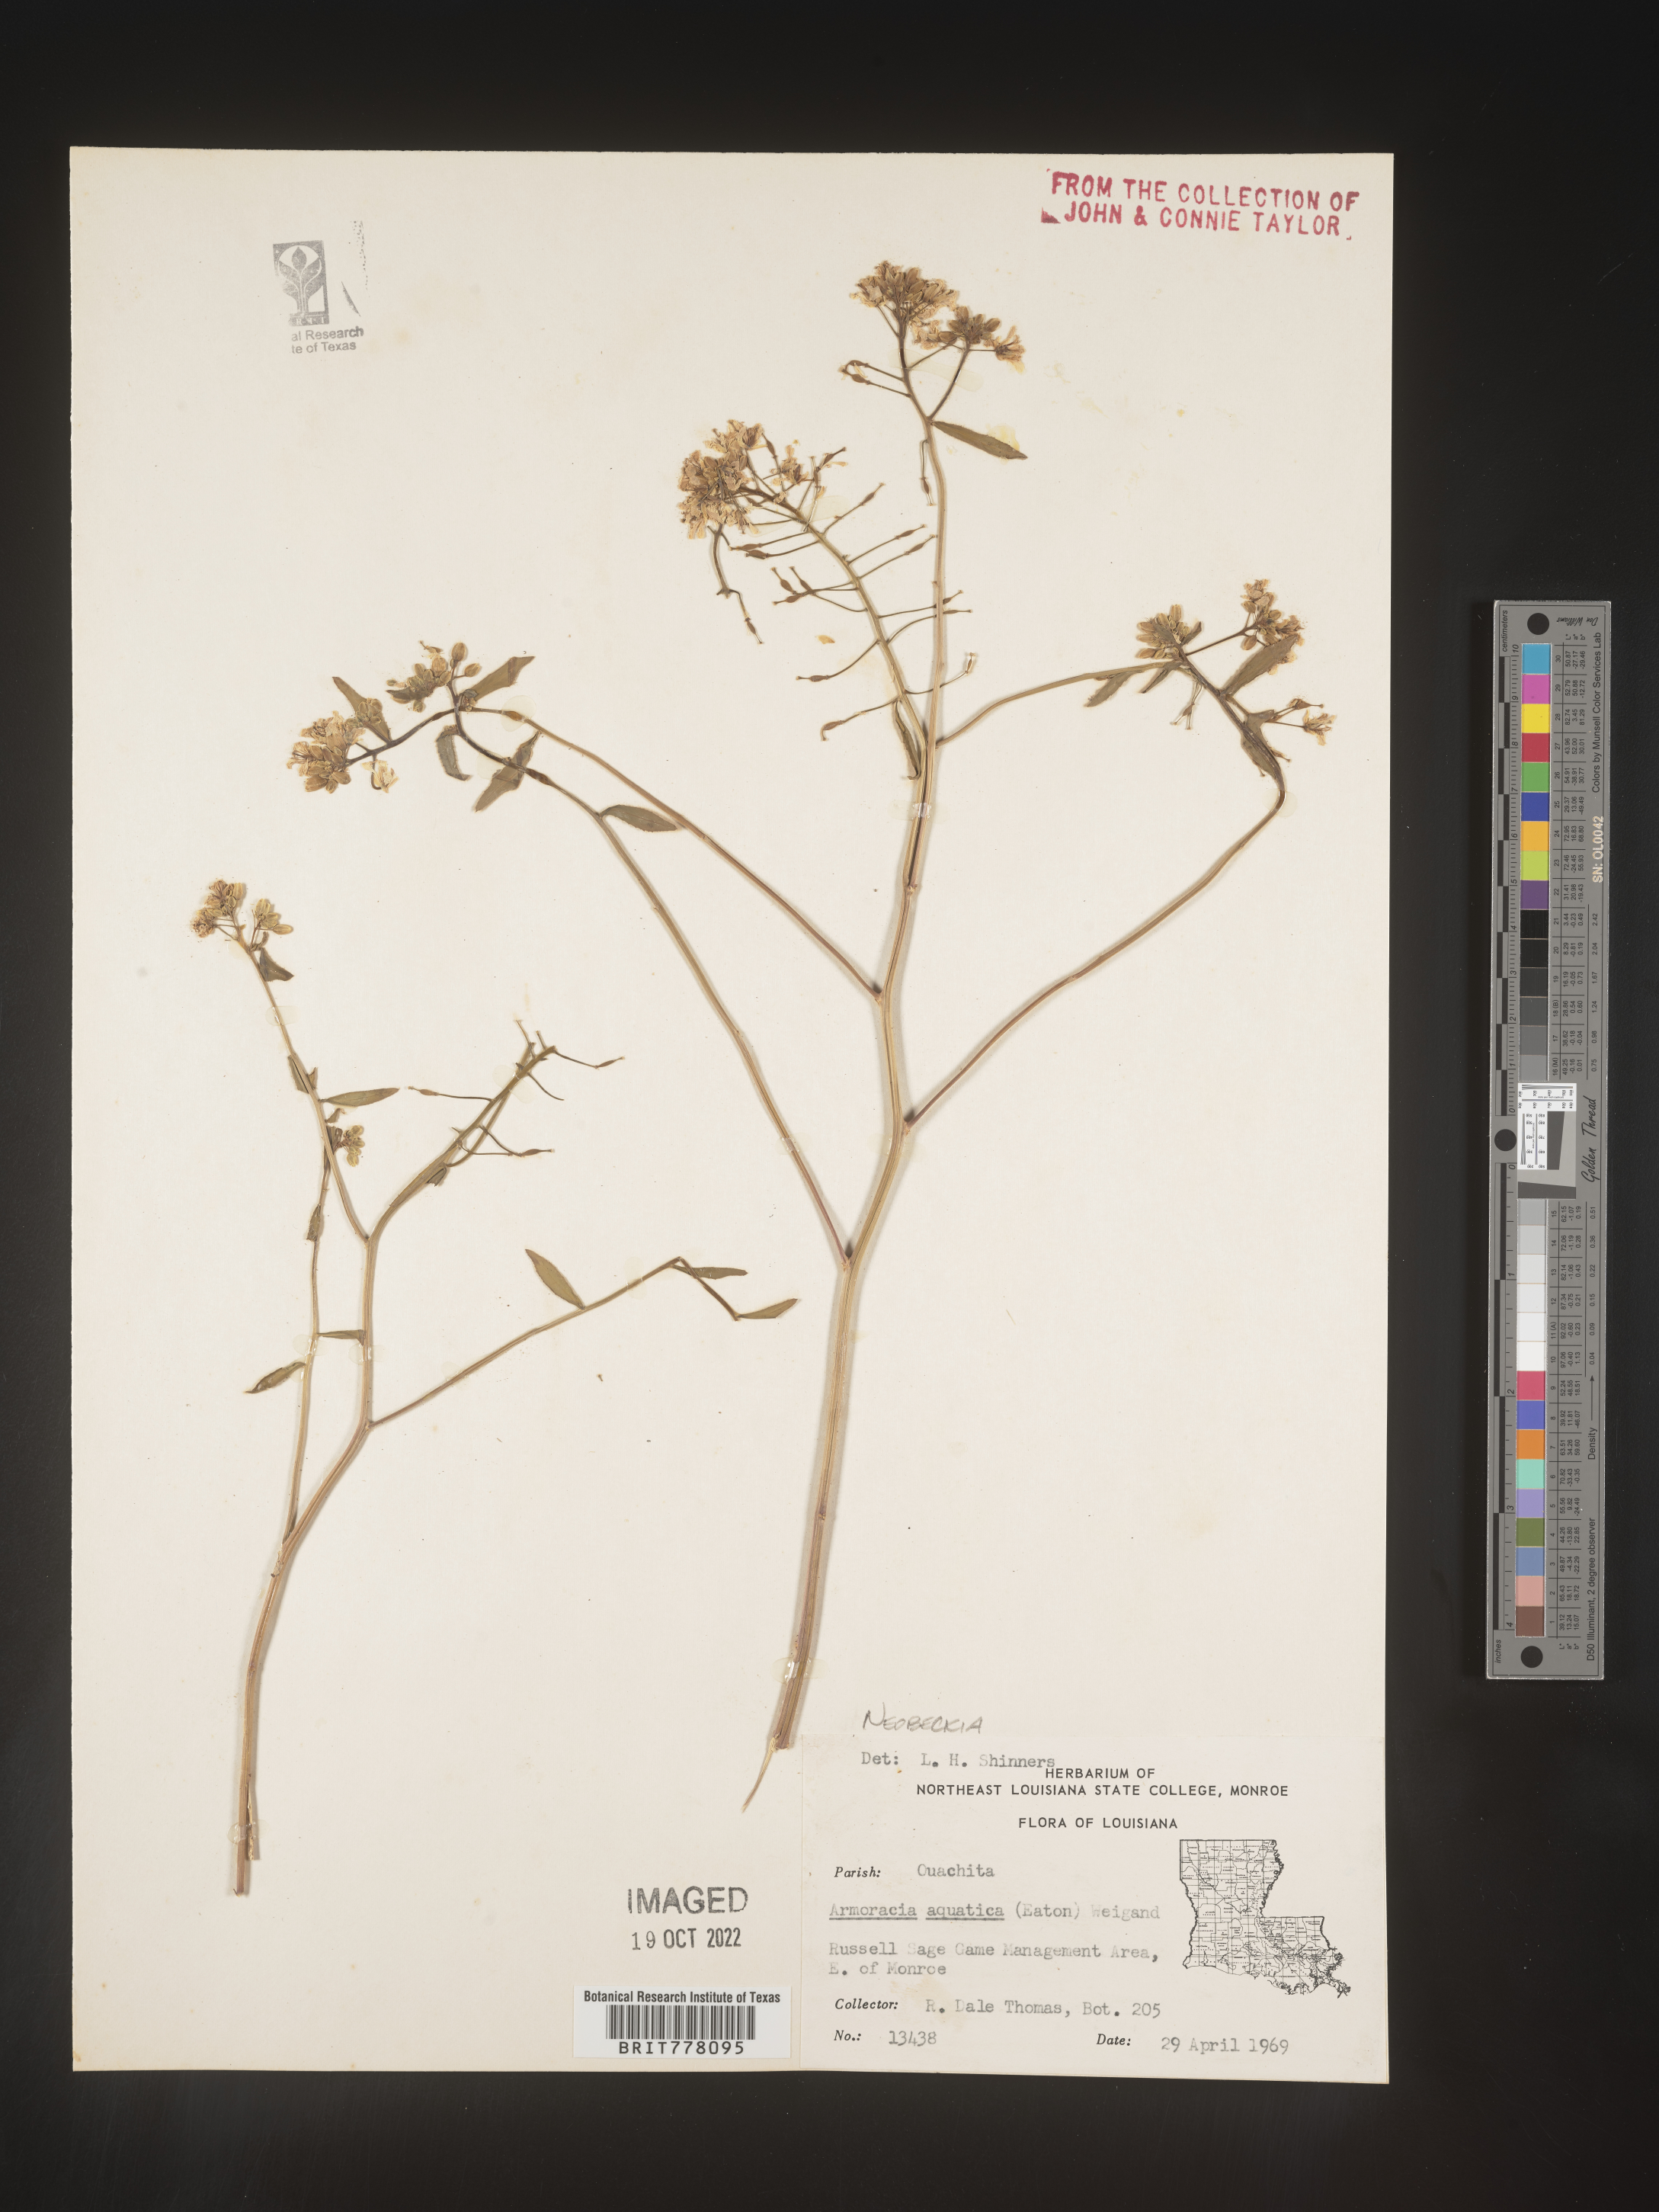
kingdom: Plantae
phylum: Tracheophyta
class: Magnoliopsida
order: Brassicales
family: Brassicaceae
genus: Rorippa
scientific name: Rorippa
